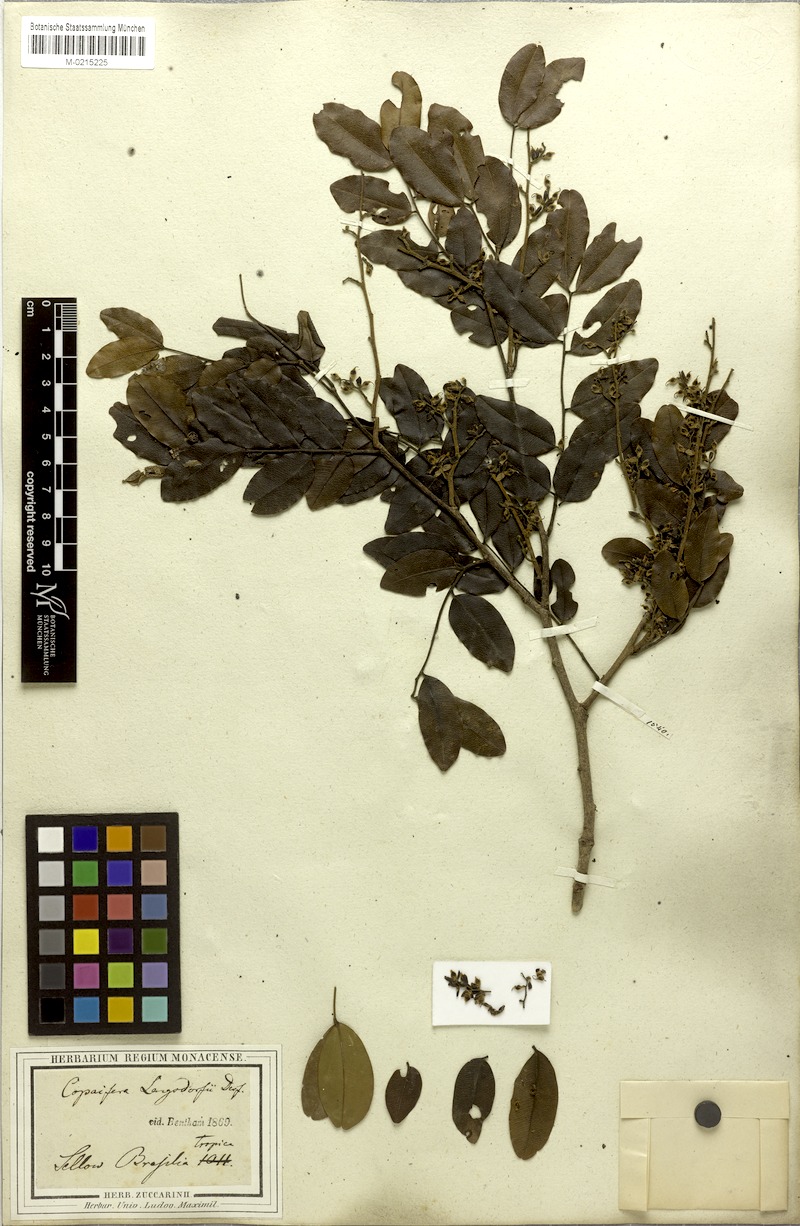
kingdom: Plantae
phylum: Tracheophyta
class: Magnoliopsida
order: Fabales
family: Fabaceae
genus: Copaifera
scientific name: Copaifera langsdorffii
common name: Brazilian diesel tree
